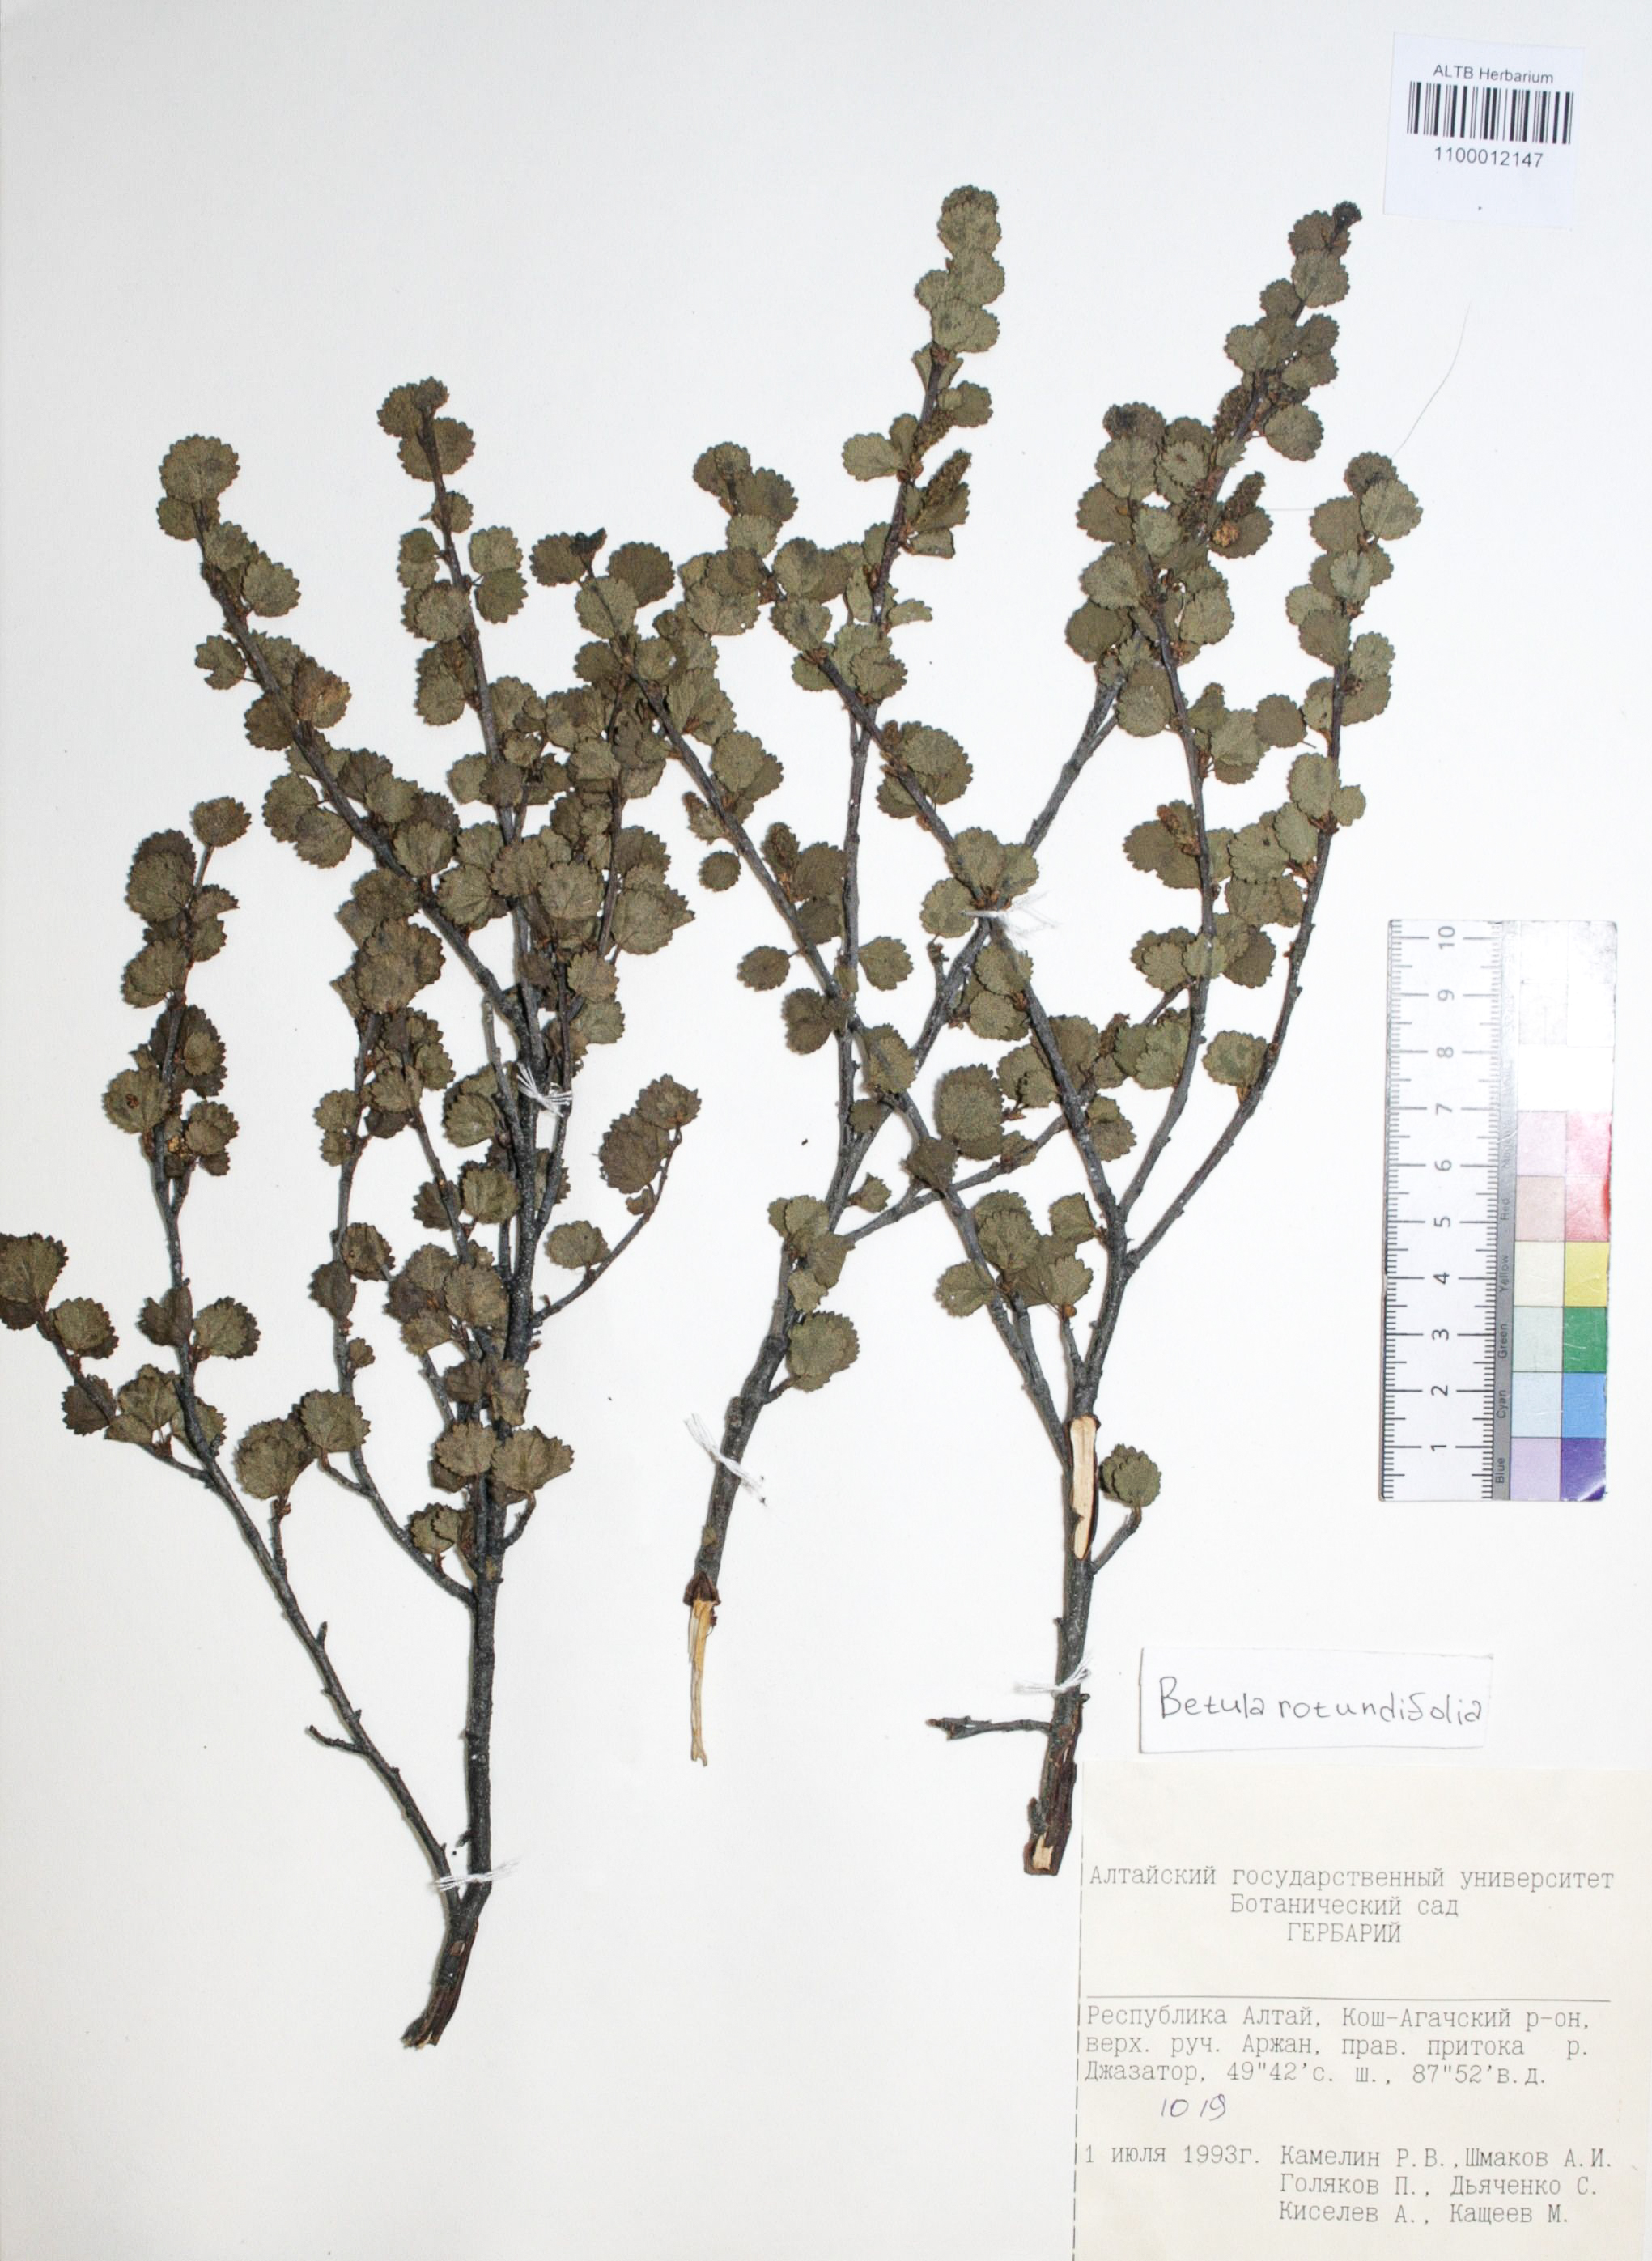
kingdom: Plantae
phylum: Tracheophyta
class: Magnoliopsida
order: Fagales
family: Betulaceae
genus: Betula
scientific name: Betula glandulosa
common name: Dwarf birch
